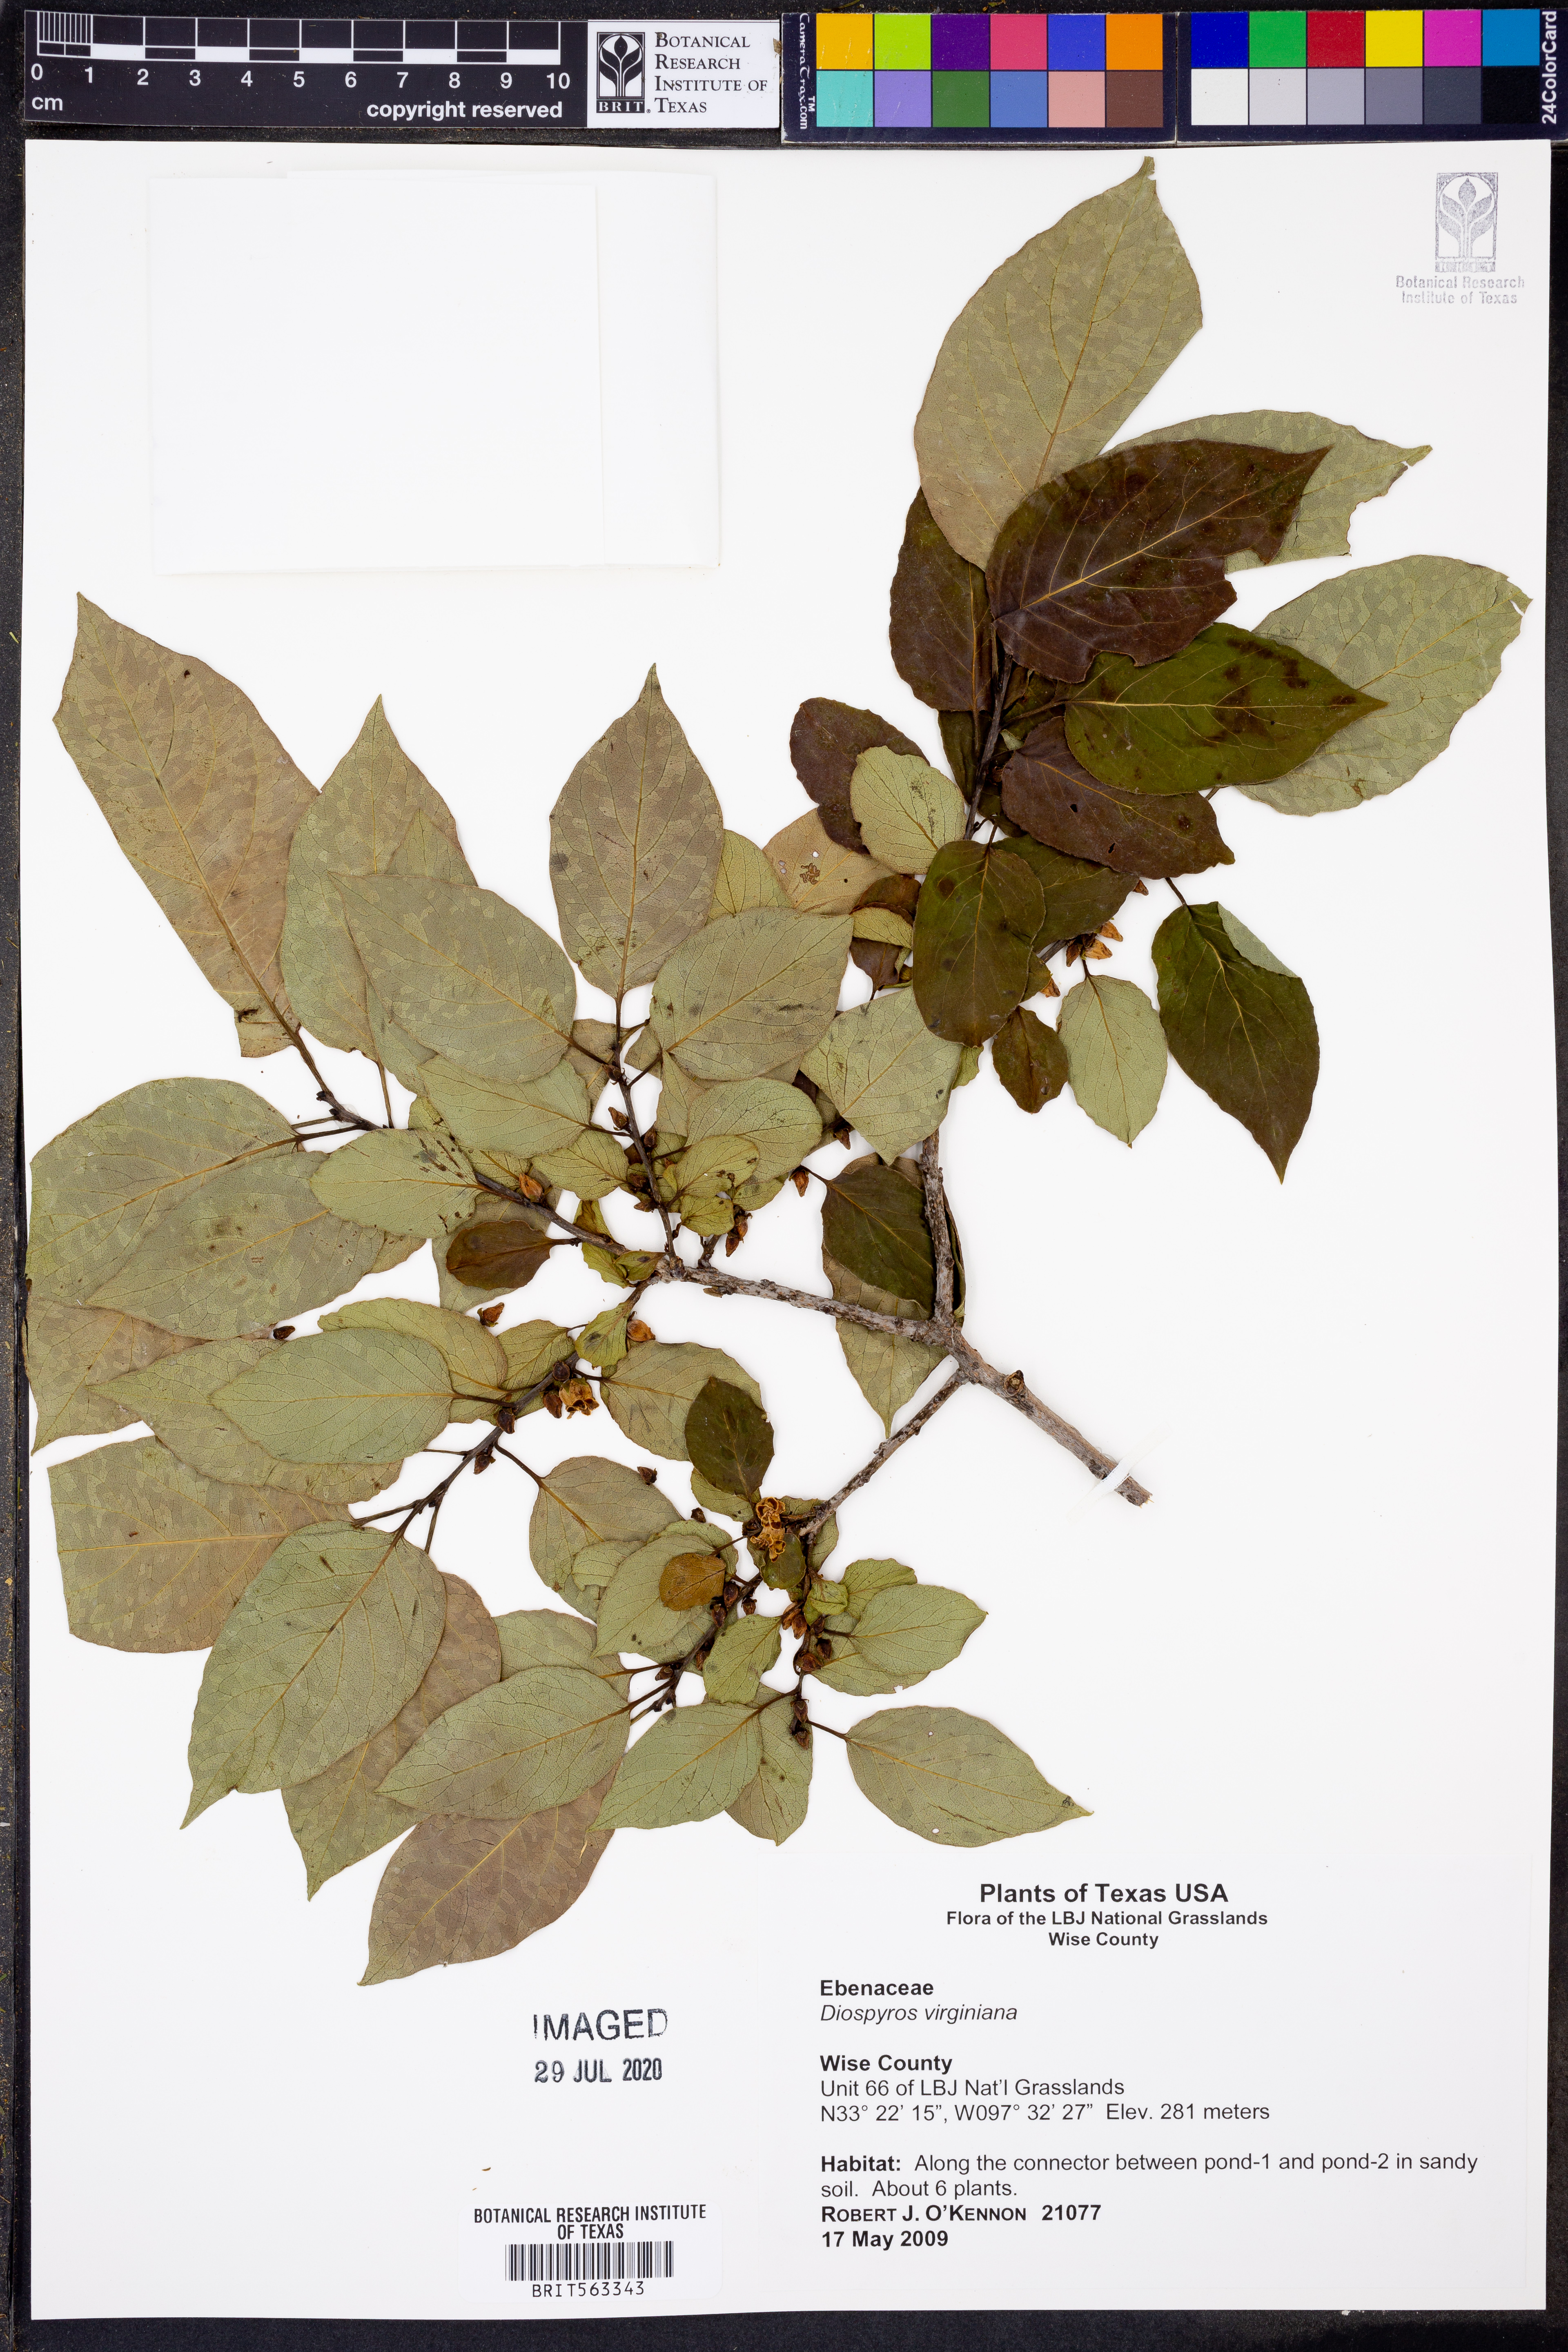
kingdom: Plantae
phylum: Tracheophyta
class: Magnoliopsida
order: Ericales
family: Ebenaceae
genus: Diospyros
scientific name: Diospyros virginiana
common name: Persimmon
